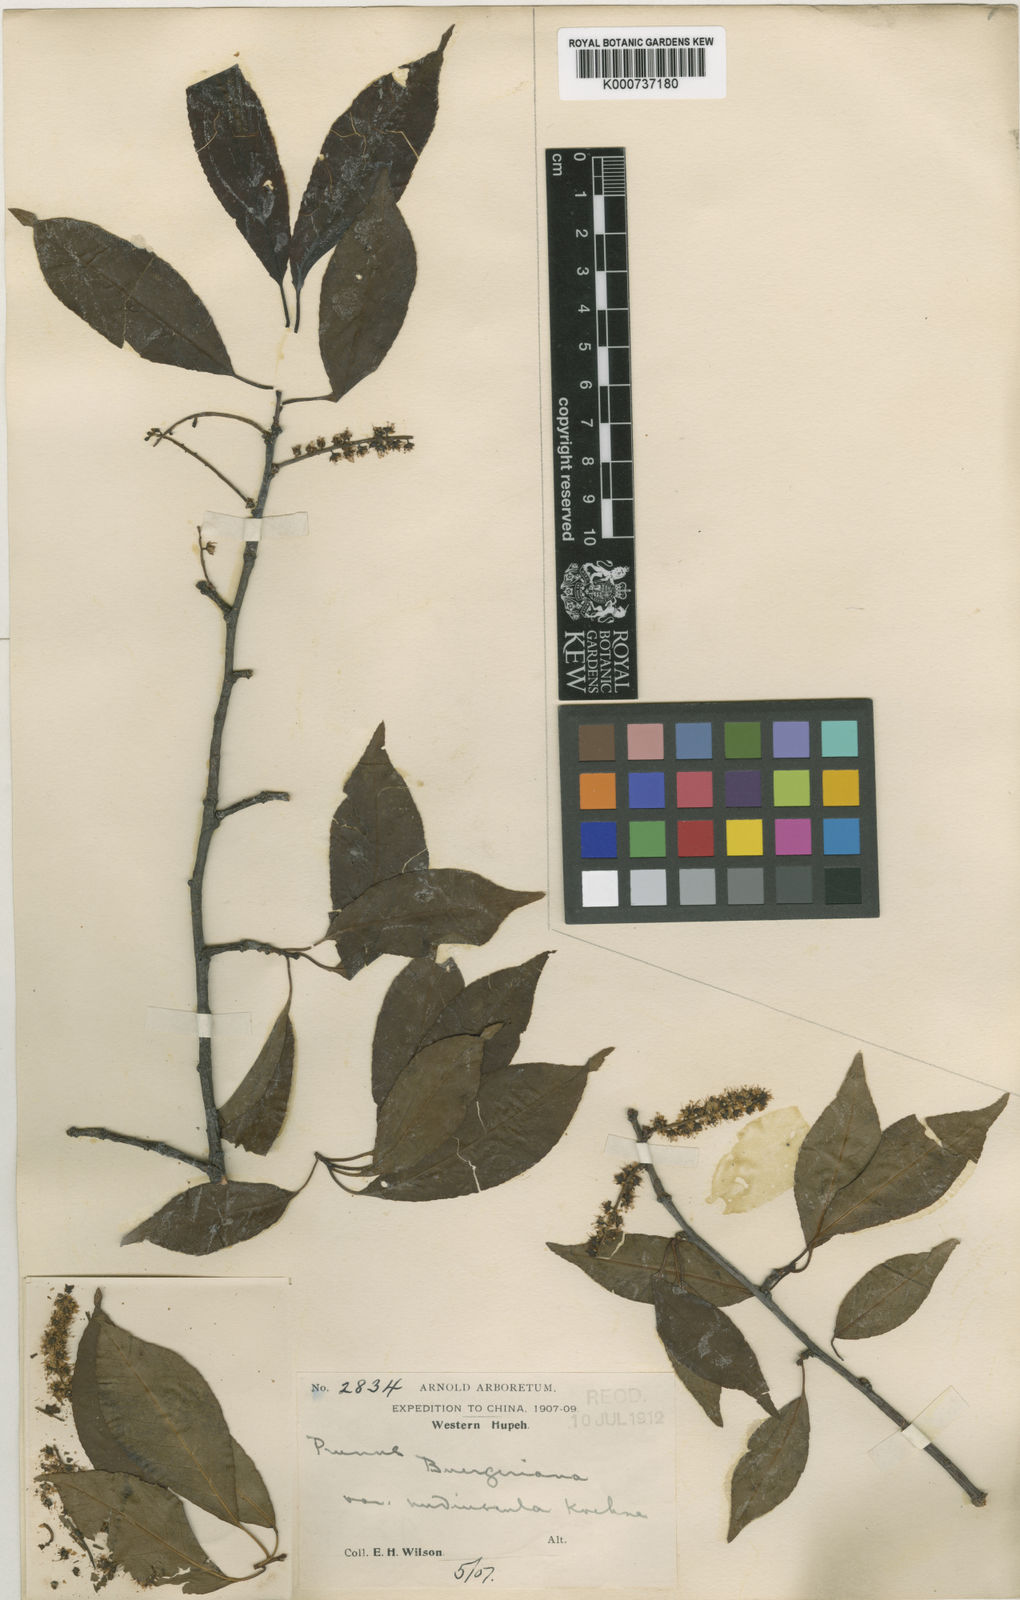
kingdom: Plantae
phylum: Tracheophyta
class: Magnoliopsida
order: Rosales
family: Rosaceae
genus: Prunus
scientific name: Prunus buergeriana
